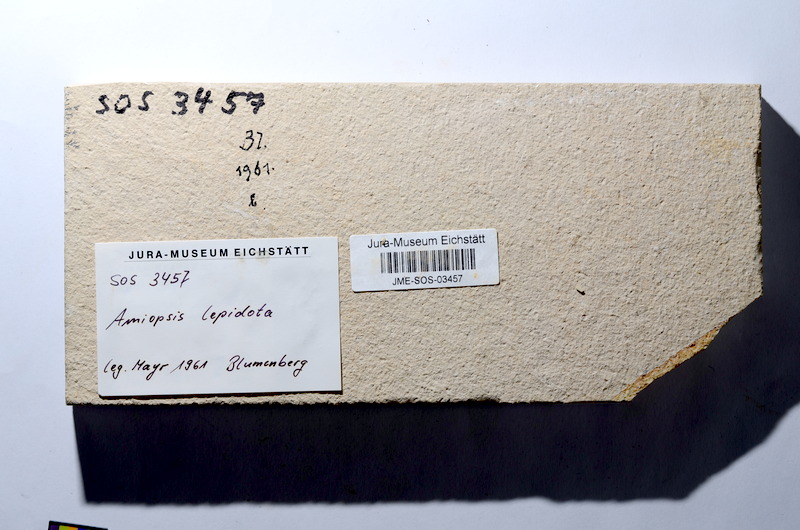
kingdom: Animalia
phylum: Chordata
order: Amiiformes
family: Amiidae
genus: Amiopsis
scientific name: Amiopsis lepidota
